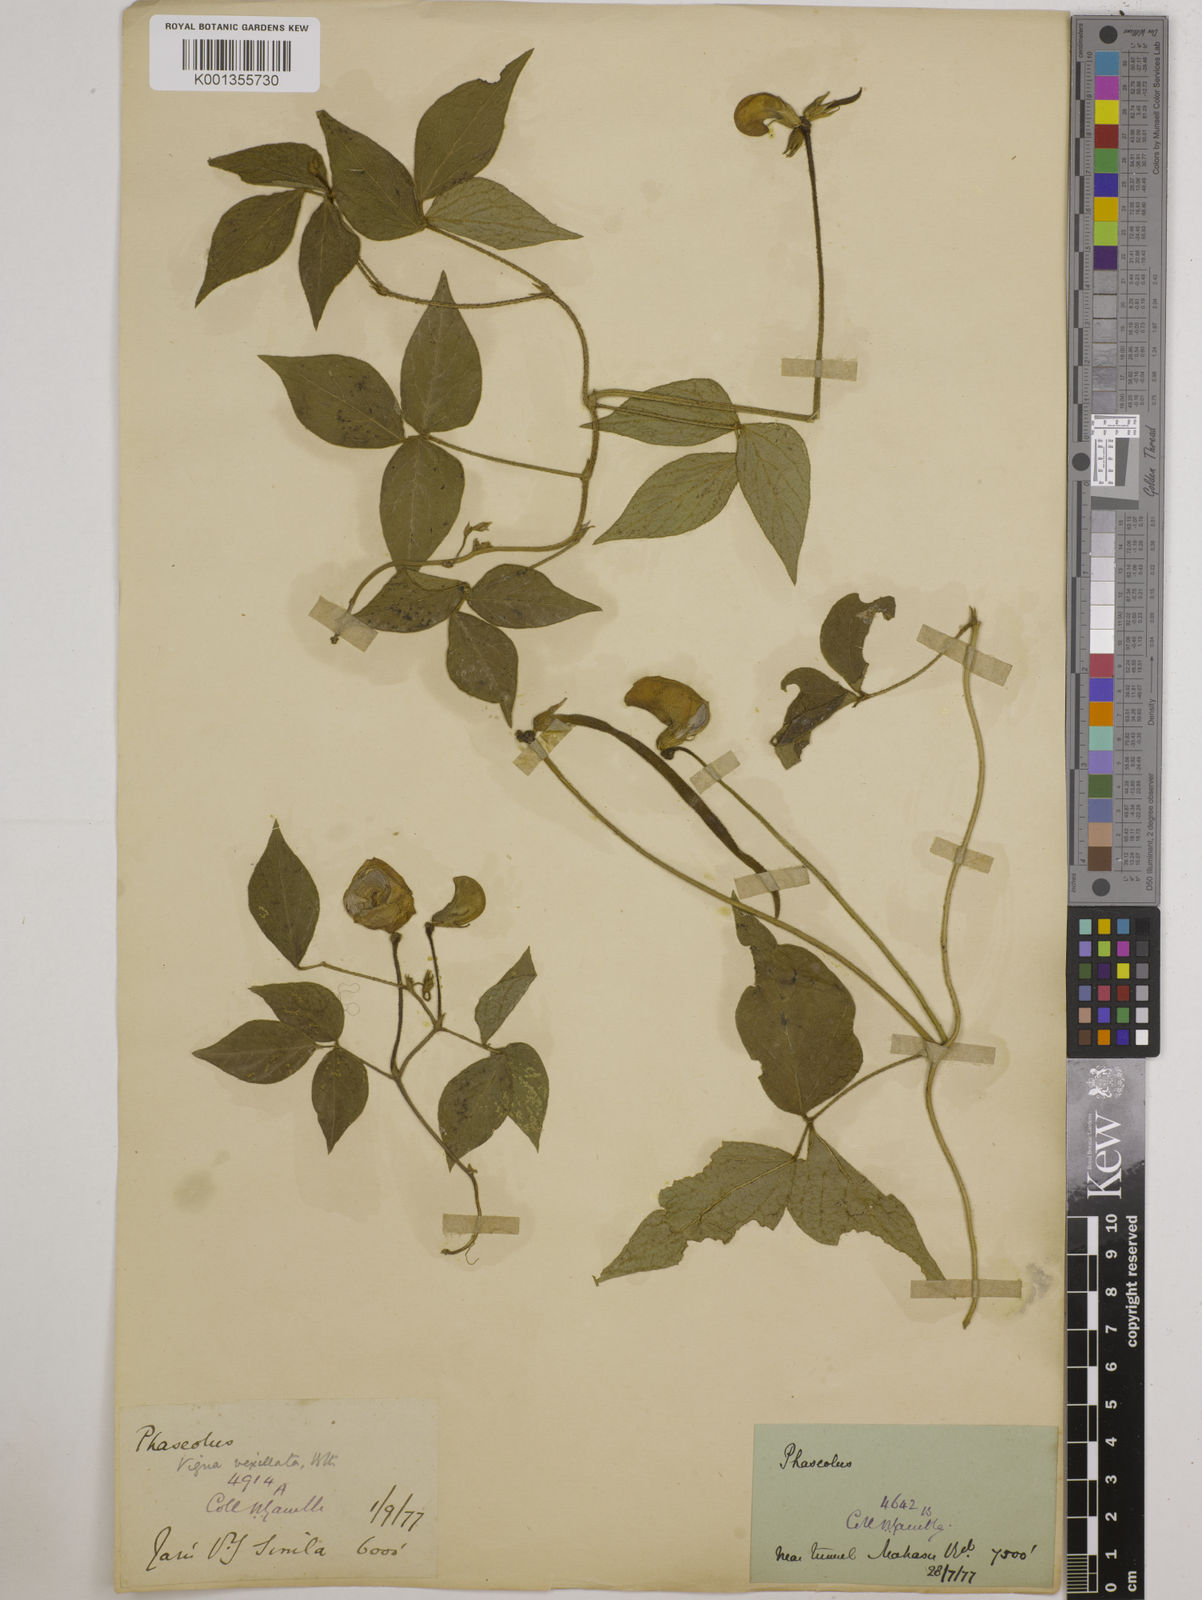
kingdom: Plantae
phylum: Tracheophyta
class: Magnoliopsida
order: Fabales
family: Fabaceae
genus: Vigna
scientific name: Vigna vexillata
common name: Zombi pea
